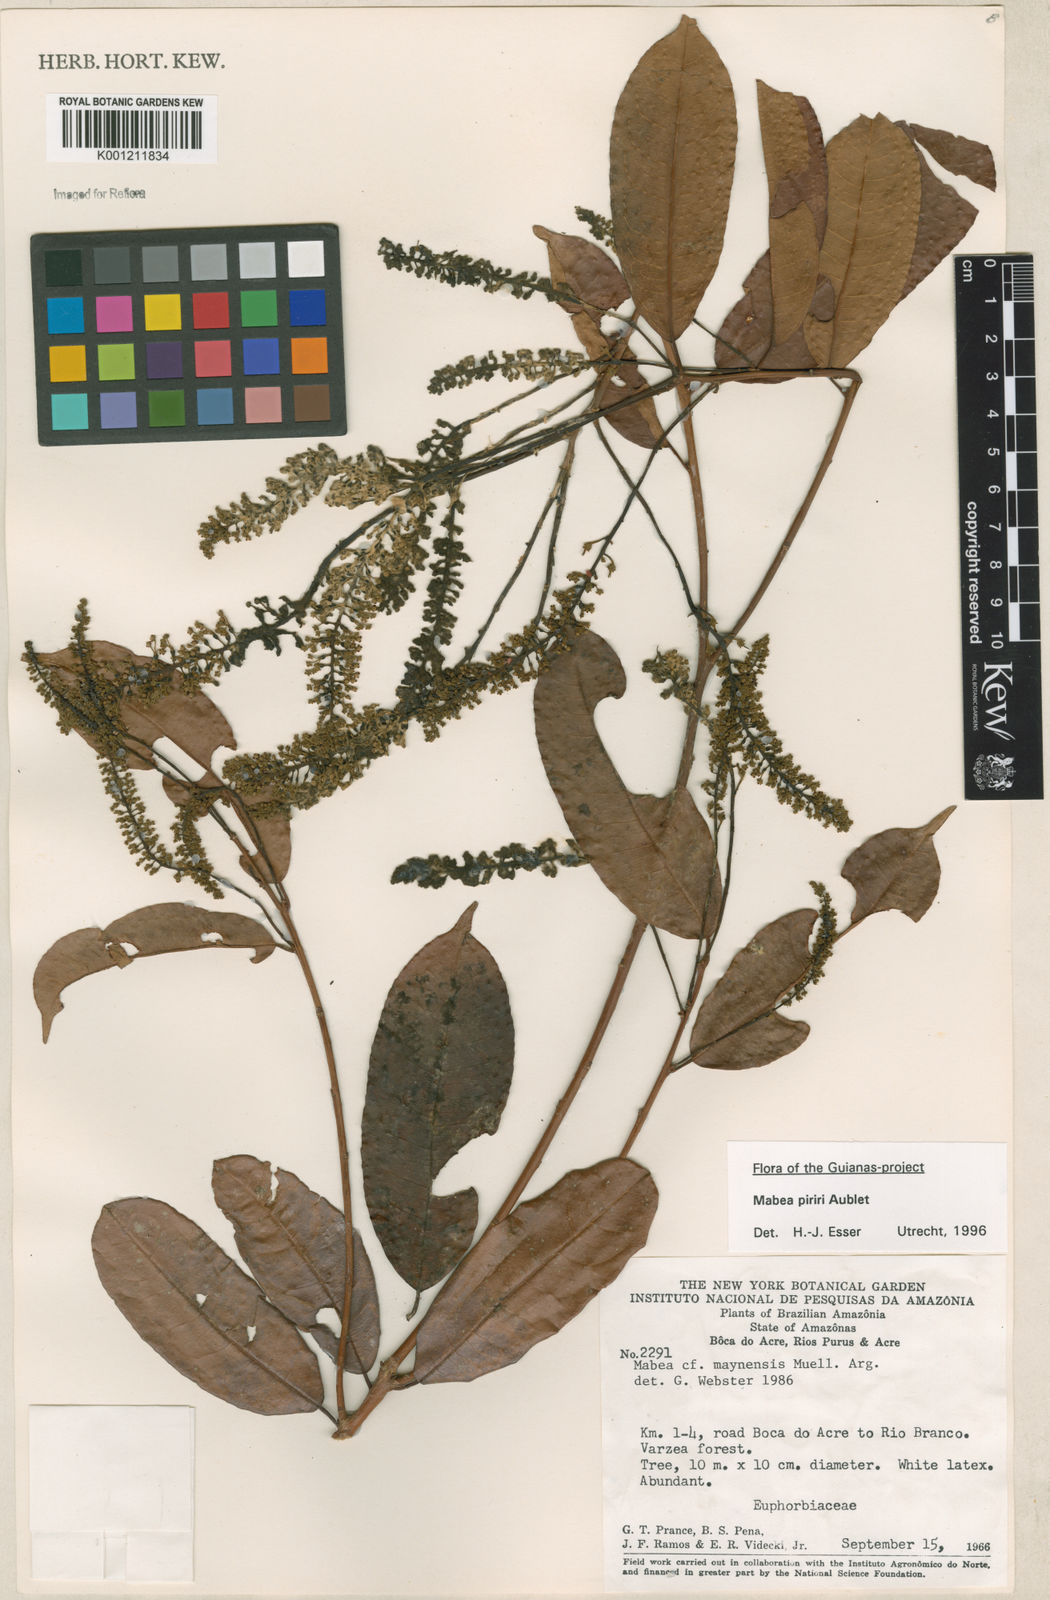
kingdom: Plantae
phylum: Tracheophyta
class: Magnoliopsida
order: Malpighiales
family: Euphorbiaceae
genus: Mabea
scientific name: Mabea piriri
